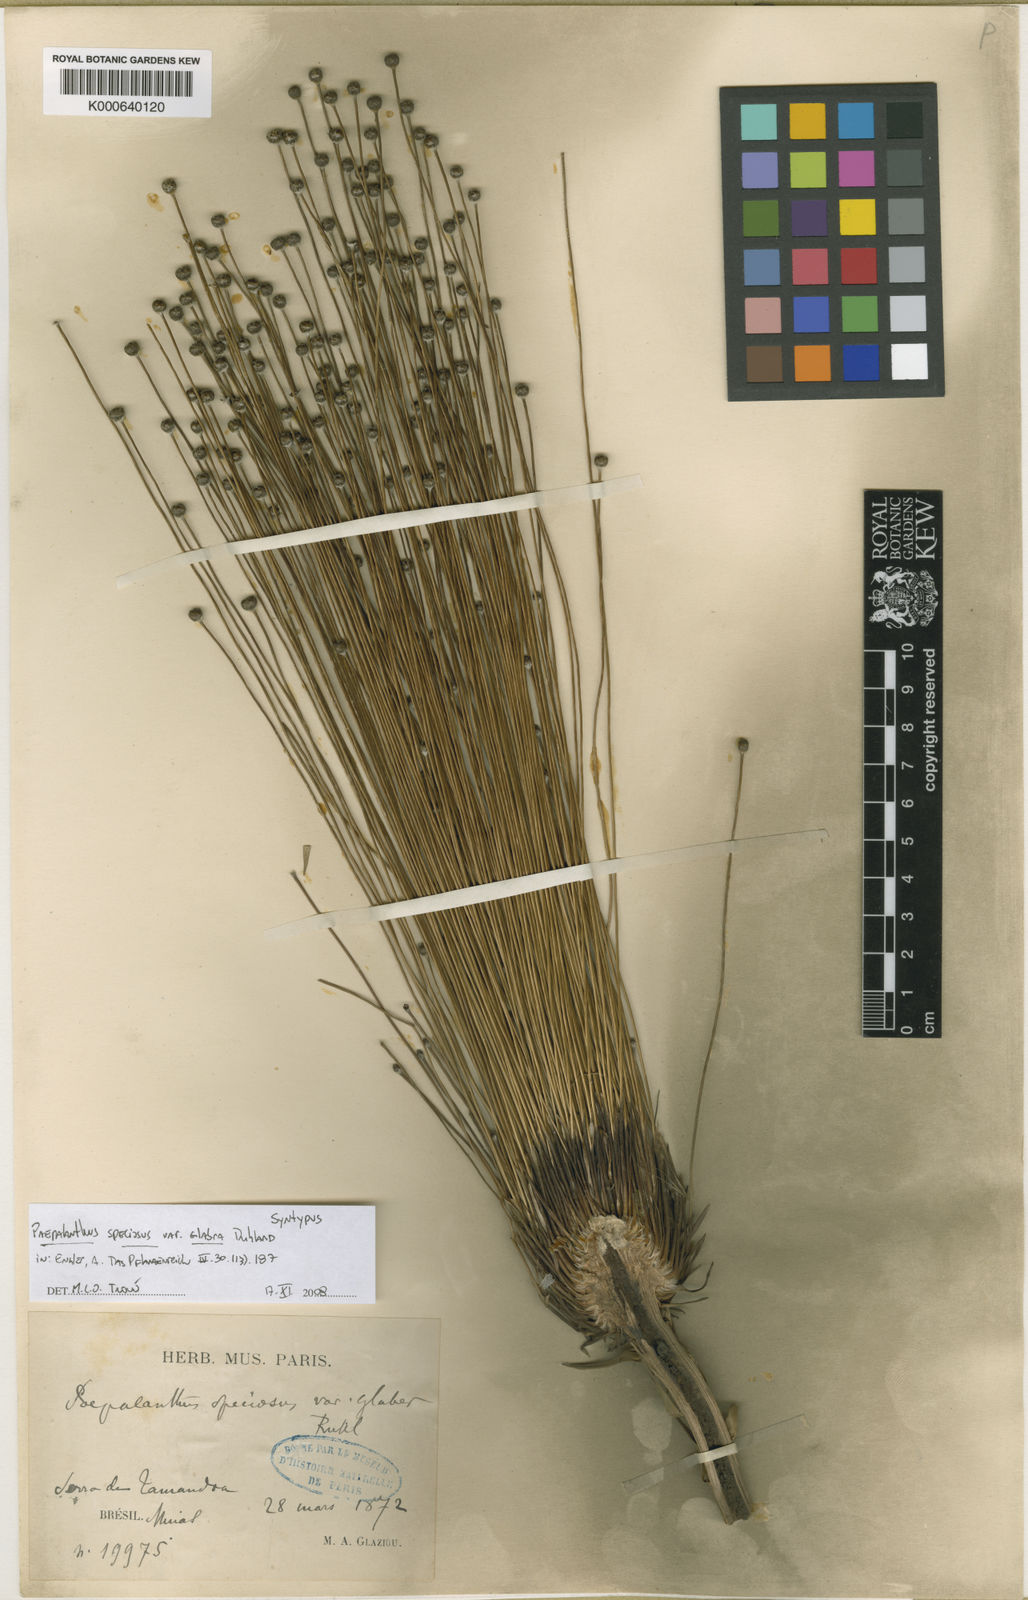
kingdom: Plantae
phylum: Tracheophyta
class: Liliopsida
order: Poales
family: Eriocaulaceae
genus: Paepalanthus
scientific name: Paepalanthus chiquitensis
